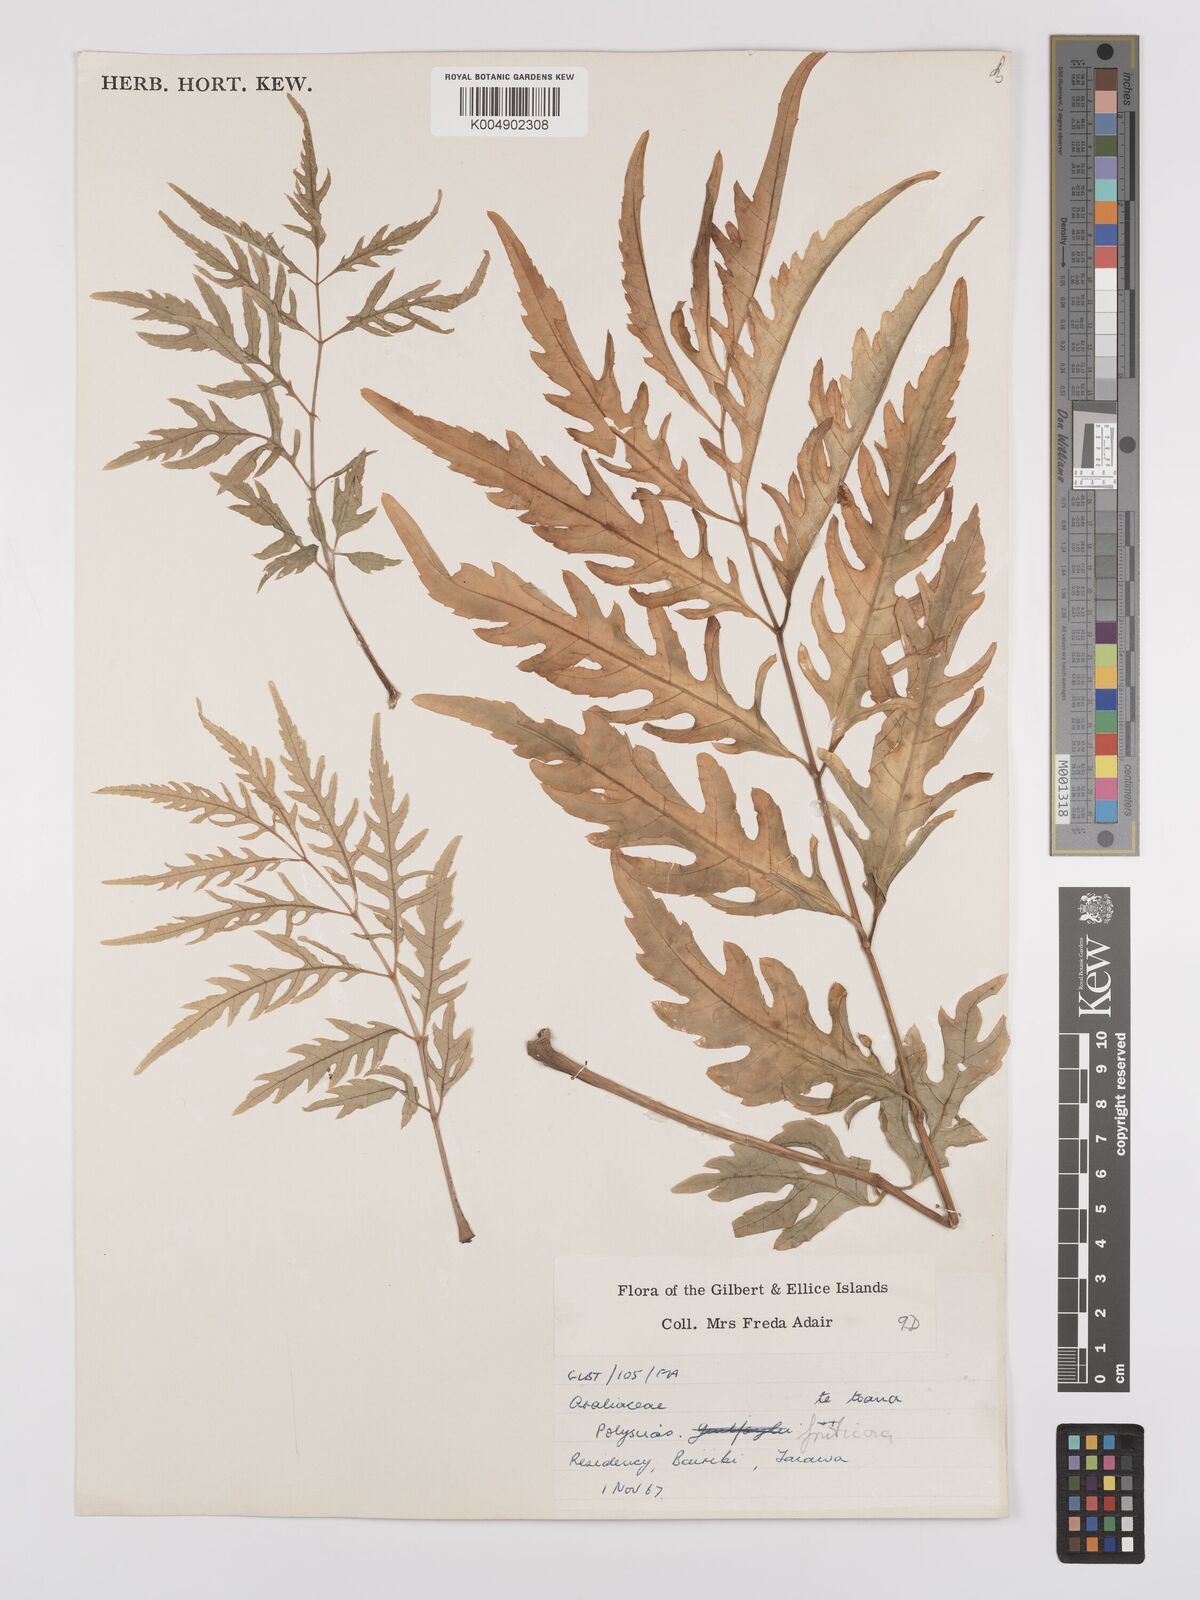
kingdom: Plantae
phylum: Tracheophyta
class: Magnoliopsida
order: Apiales
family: Araliaceae
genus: Polyscias
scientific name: Polyscias fruticosa
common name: Teatree
